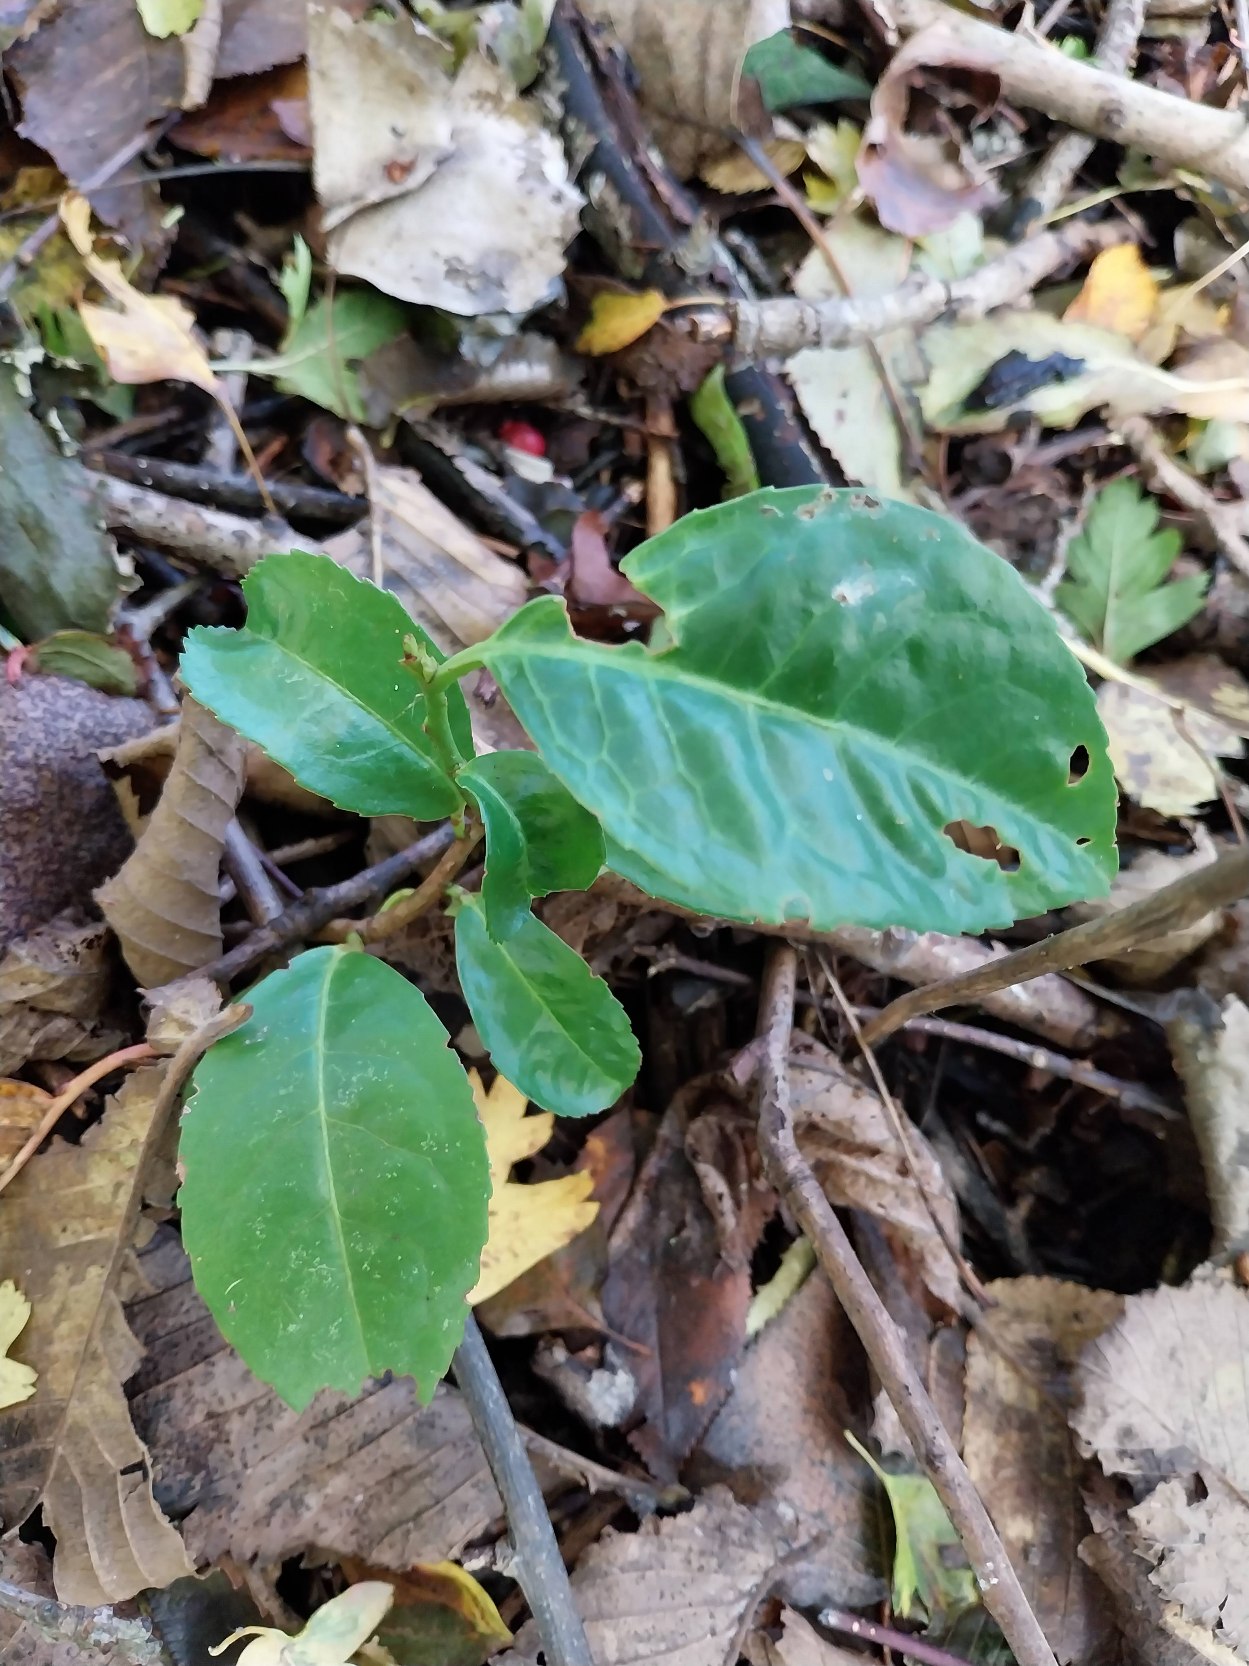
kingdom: Plantae
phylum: Tracheophyta
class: Magnoliopsida
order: Rosales
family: Rosaceae
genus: Prunus
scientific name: Prunus laurocerasus
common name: Laurbærkirsebær
